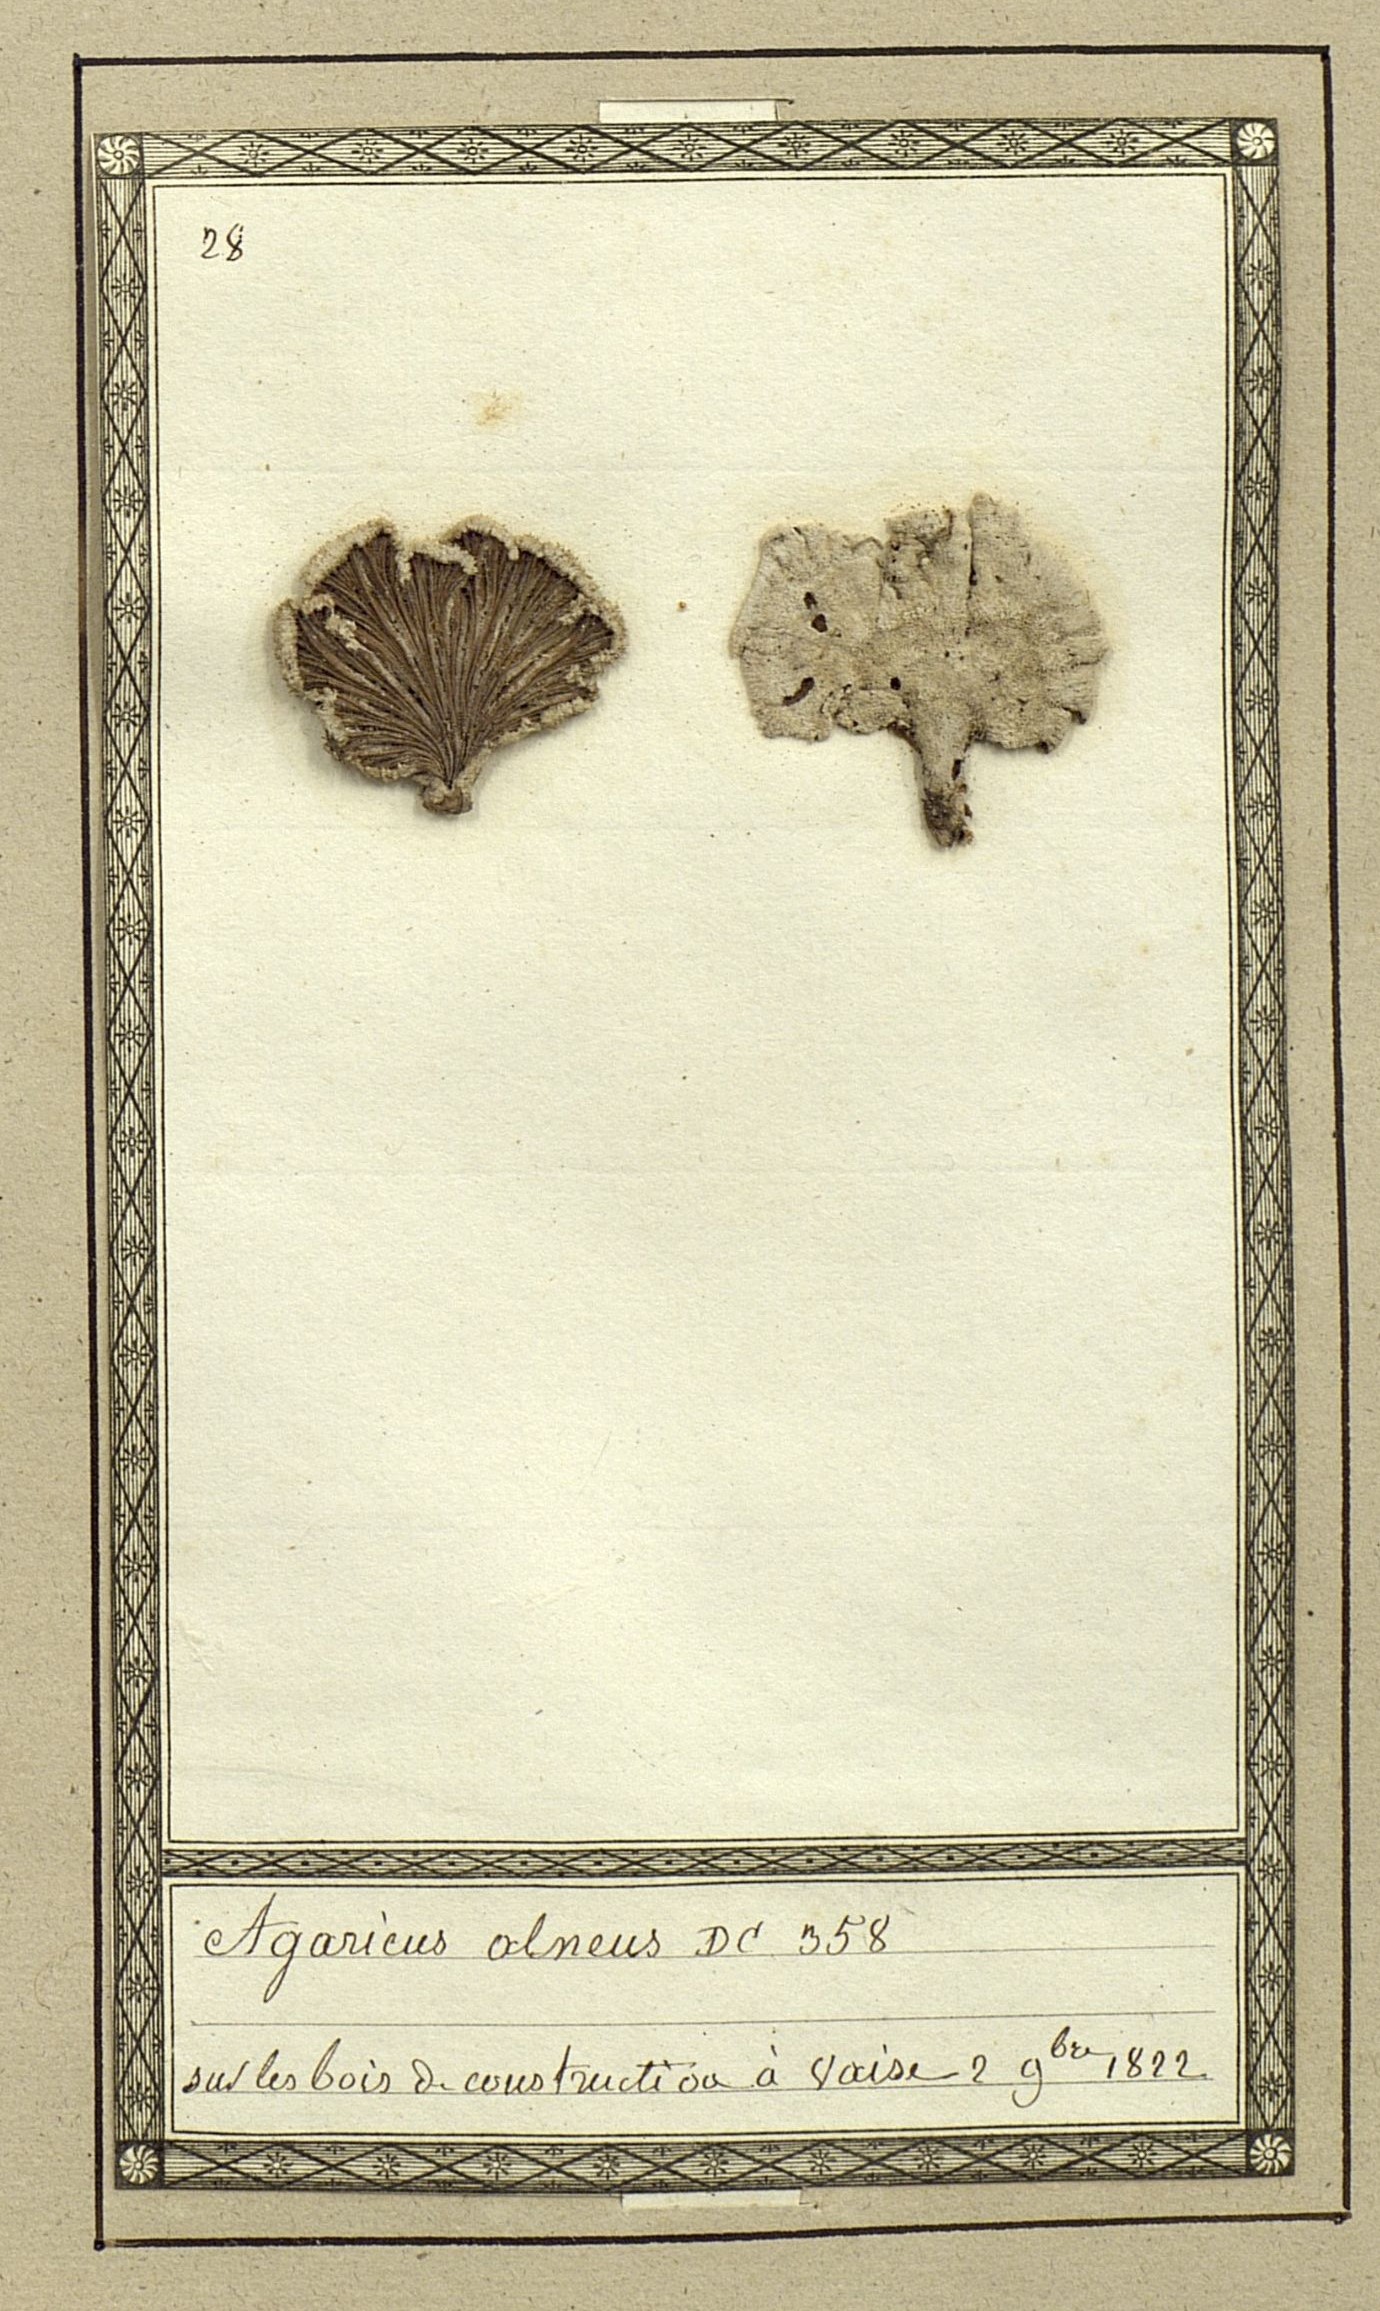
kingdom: Fungi
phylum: Basidiomycota
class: Agaricomycetes
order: Agaricales
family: Schizophyllaceae
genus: Schizophyllum
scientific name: Schizophyllum commune
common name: Common porecrust
